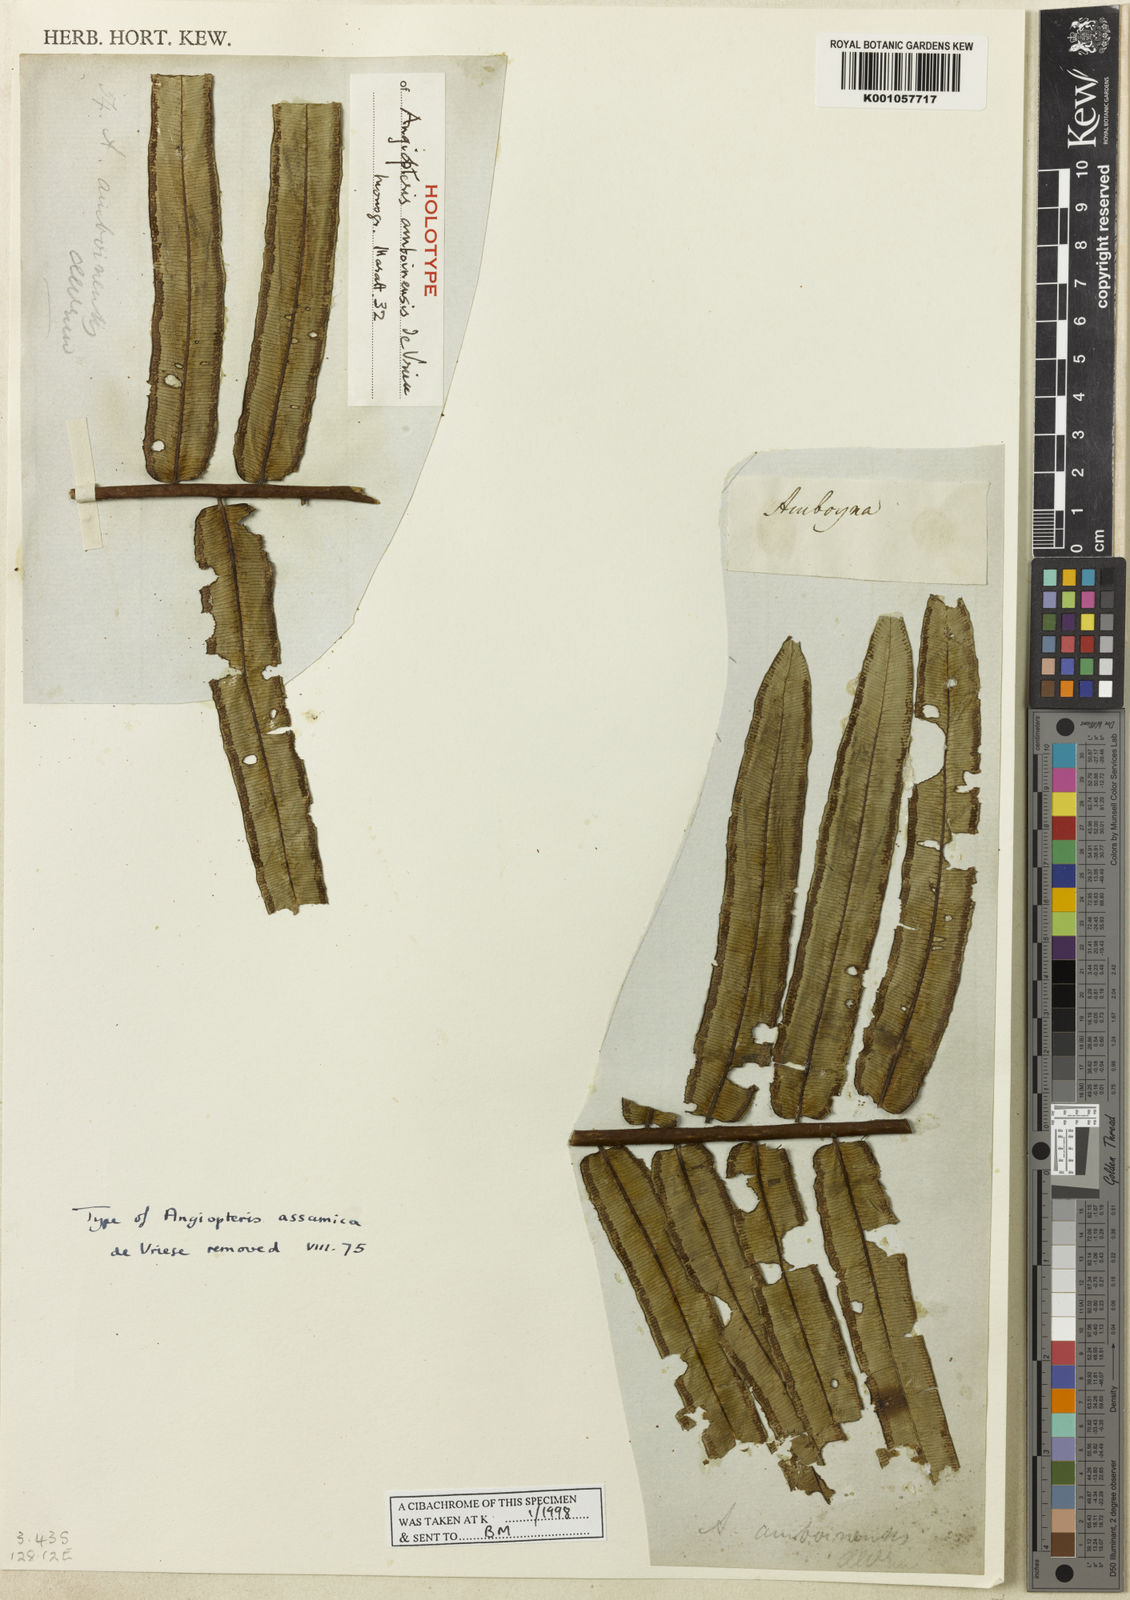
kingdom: Plantae
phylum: Tracheophyta
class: Polypodiopsida
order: Marattiales
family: Marattiaceae
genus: Angiopteris
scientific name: Angiopteris javanica
